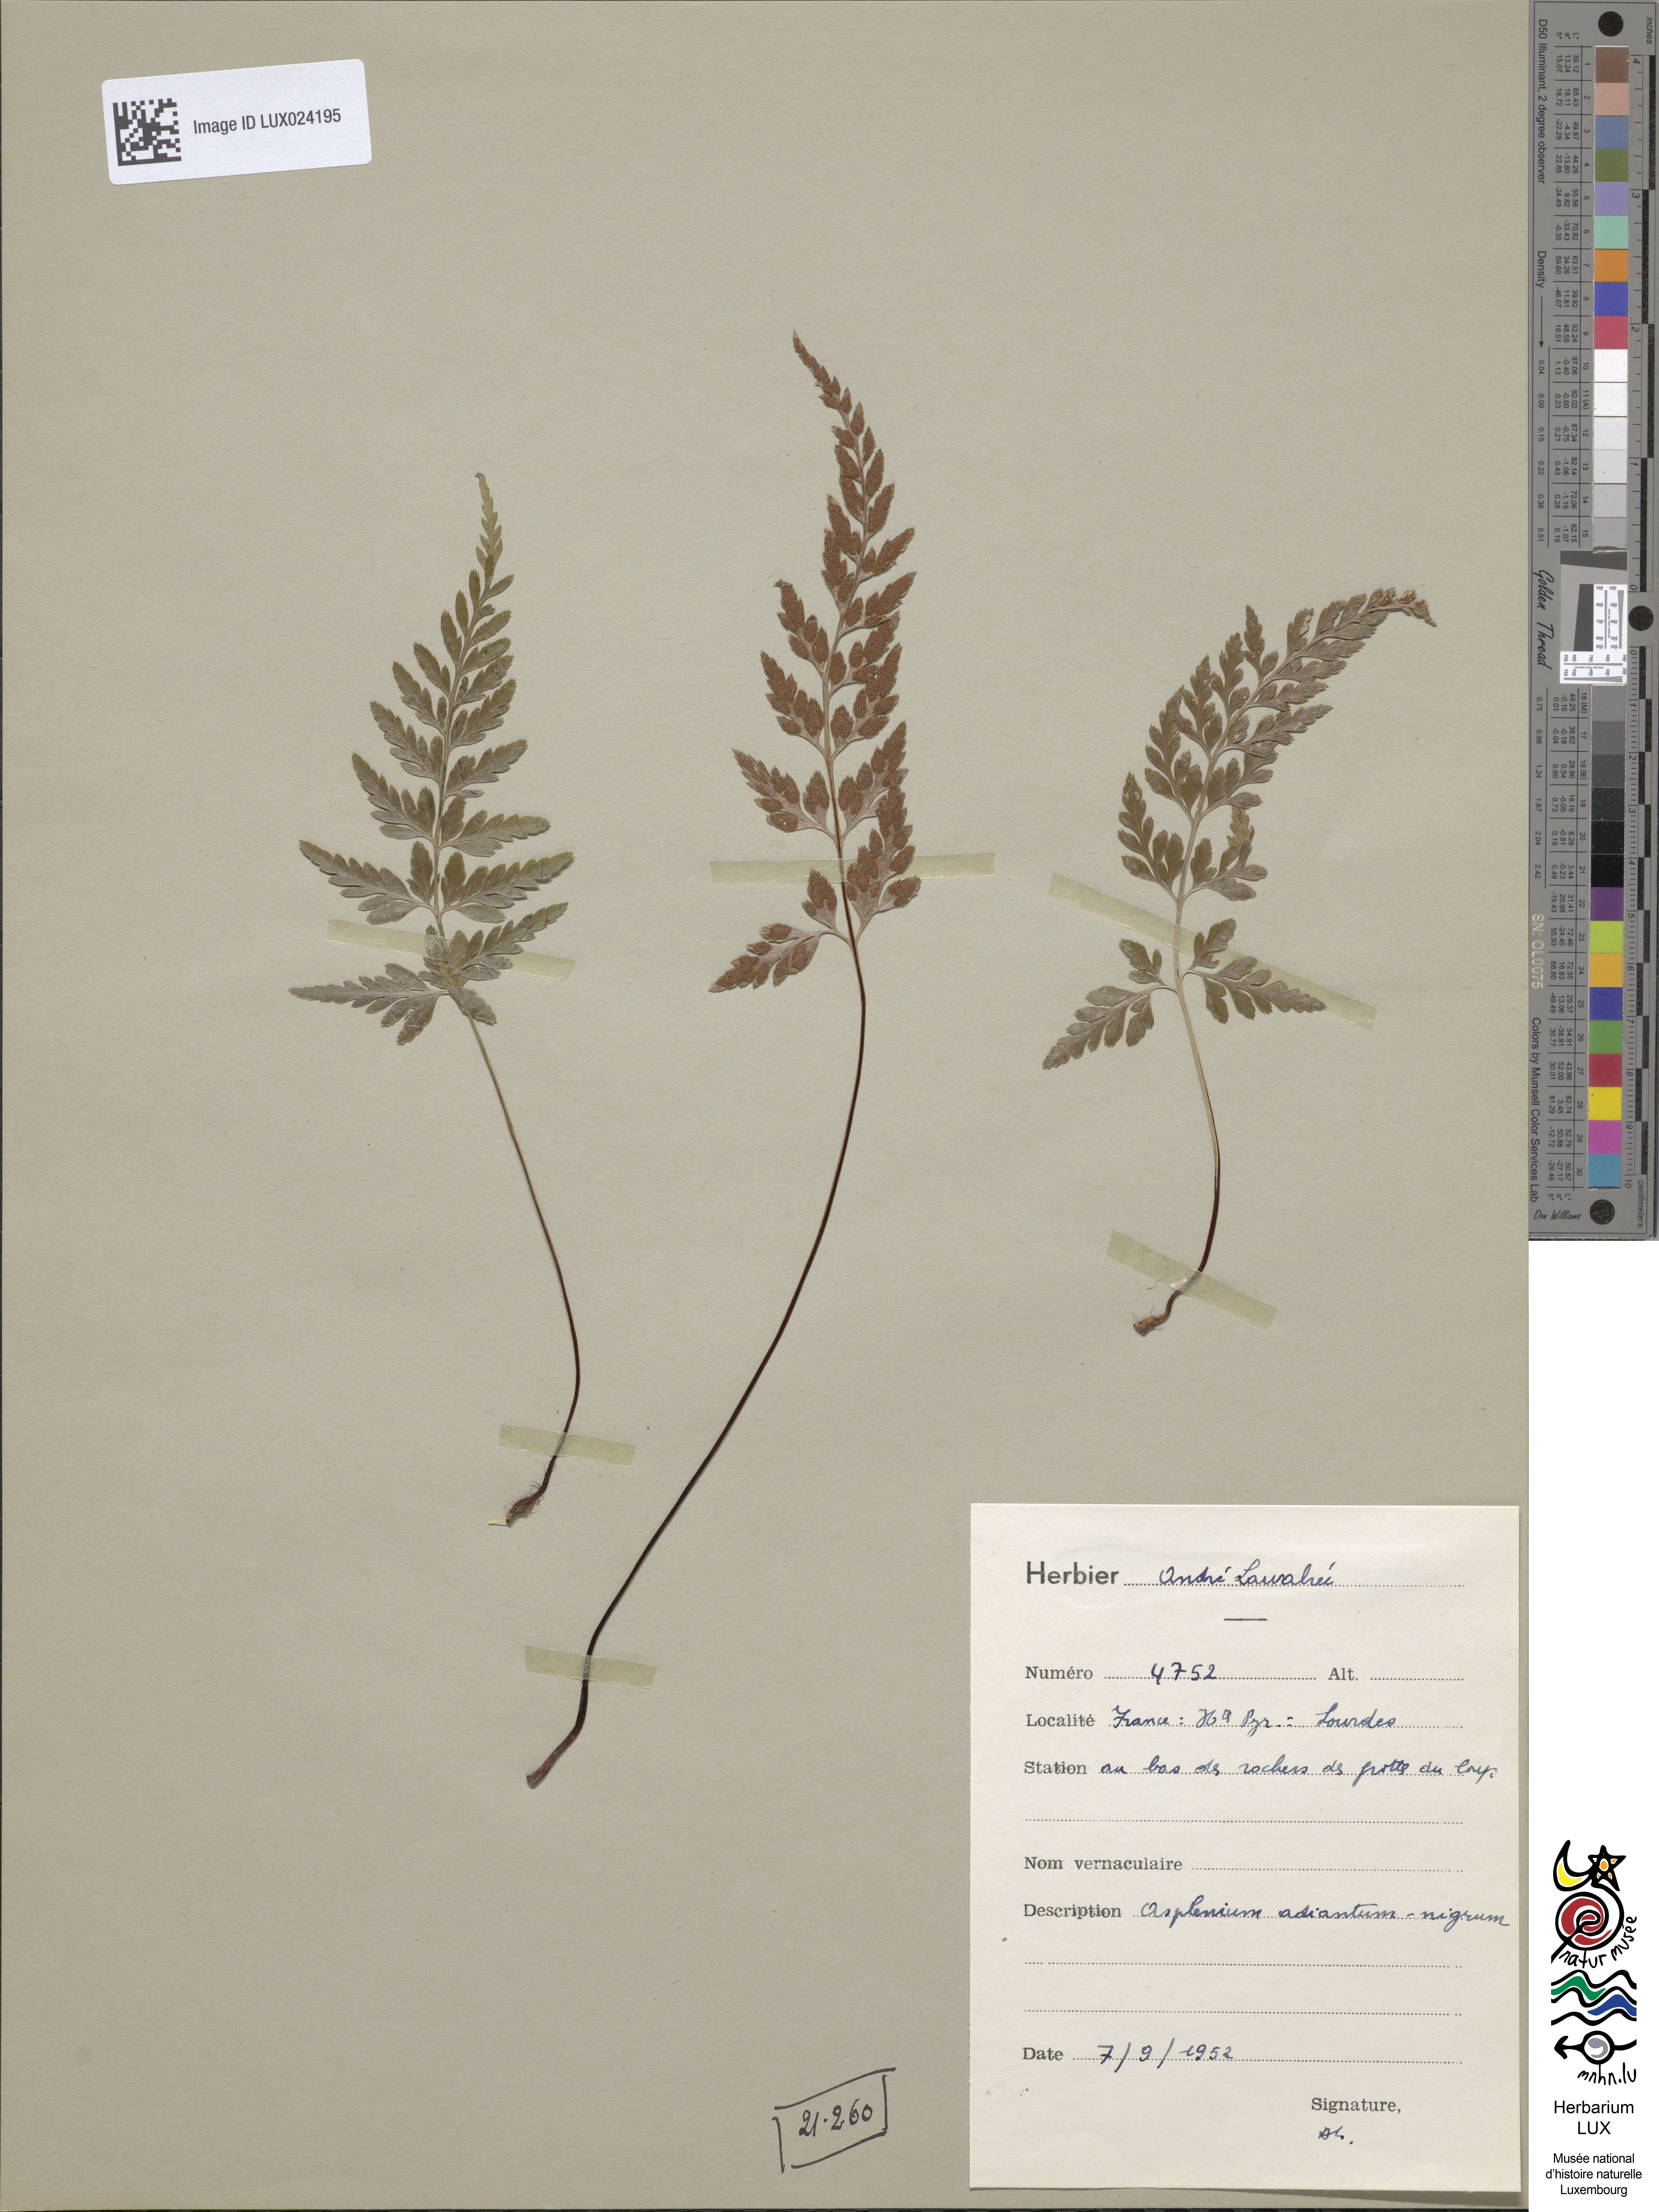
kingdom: Plantae
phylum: Tracheophyta
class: Polypodiopsida
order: Polypodiales
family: Aspleniaceae
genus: Asplenium
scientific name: Asplenium adiantum-nigrum
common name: Black spleenwort
